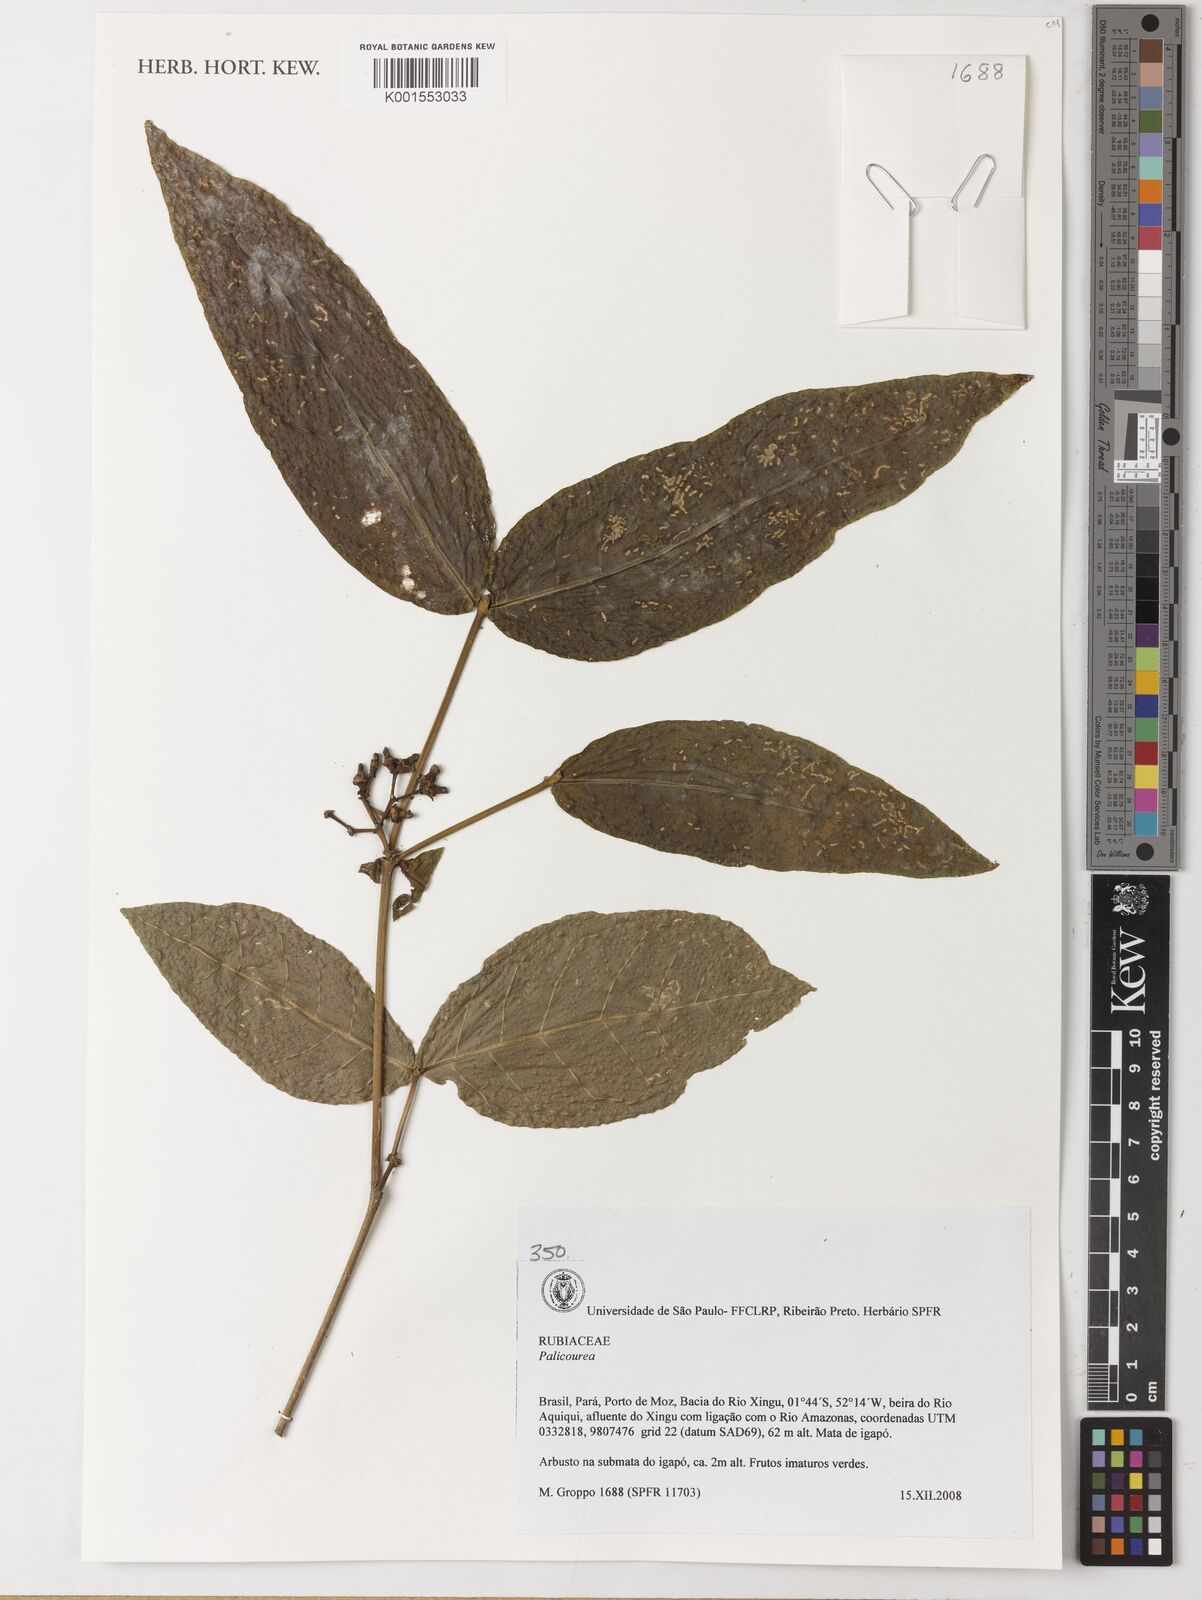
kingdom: Plantae
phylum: Tracheophyta
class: Magnoliopsida
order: Gentianales
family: Rubiaceae
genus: Palicourea
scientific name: Palicourea
